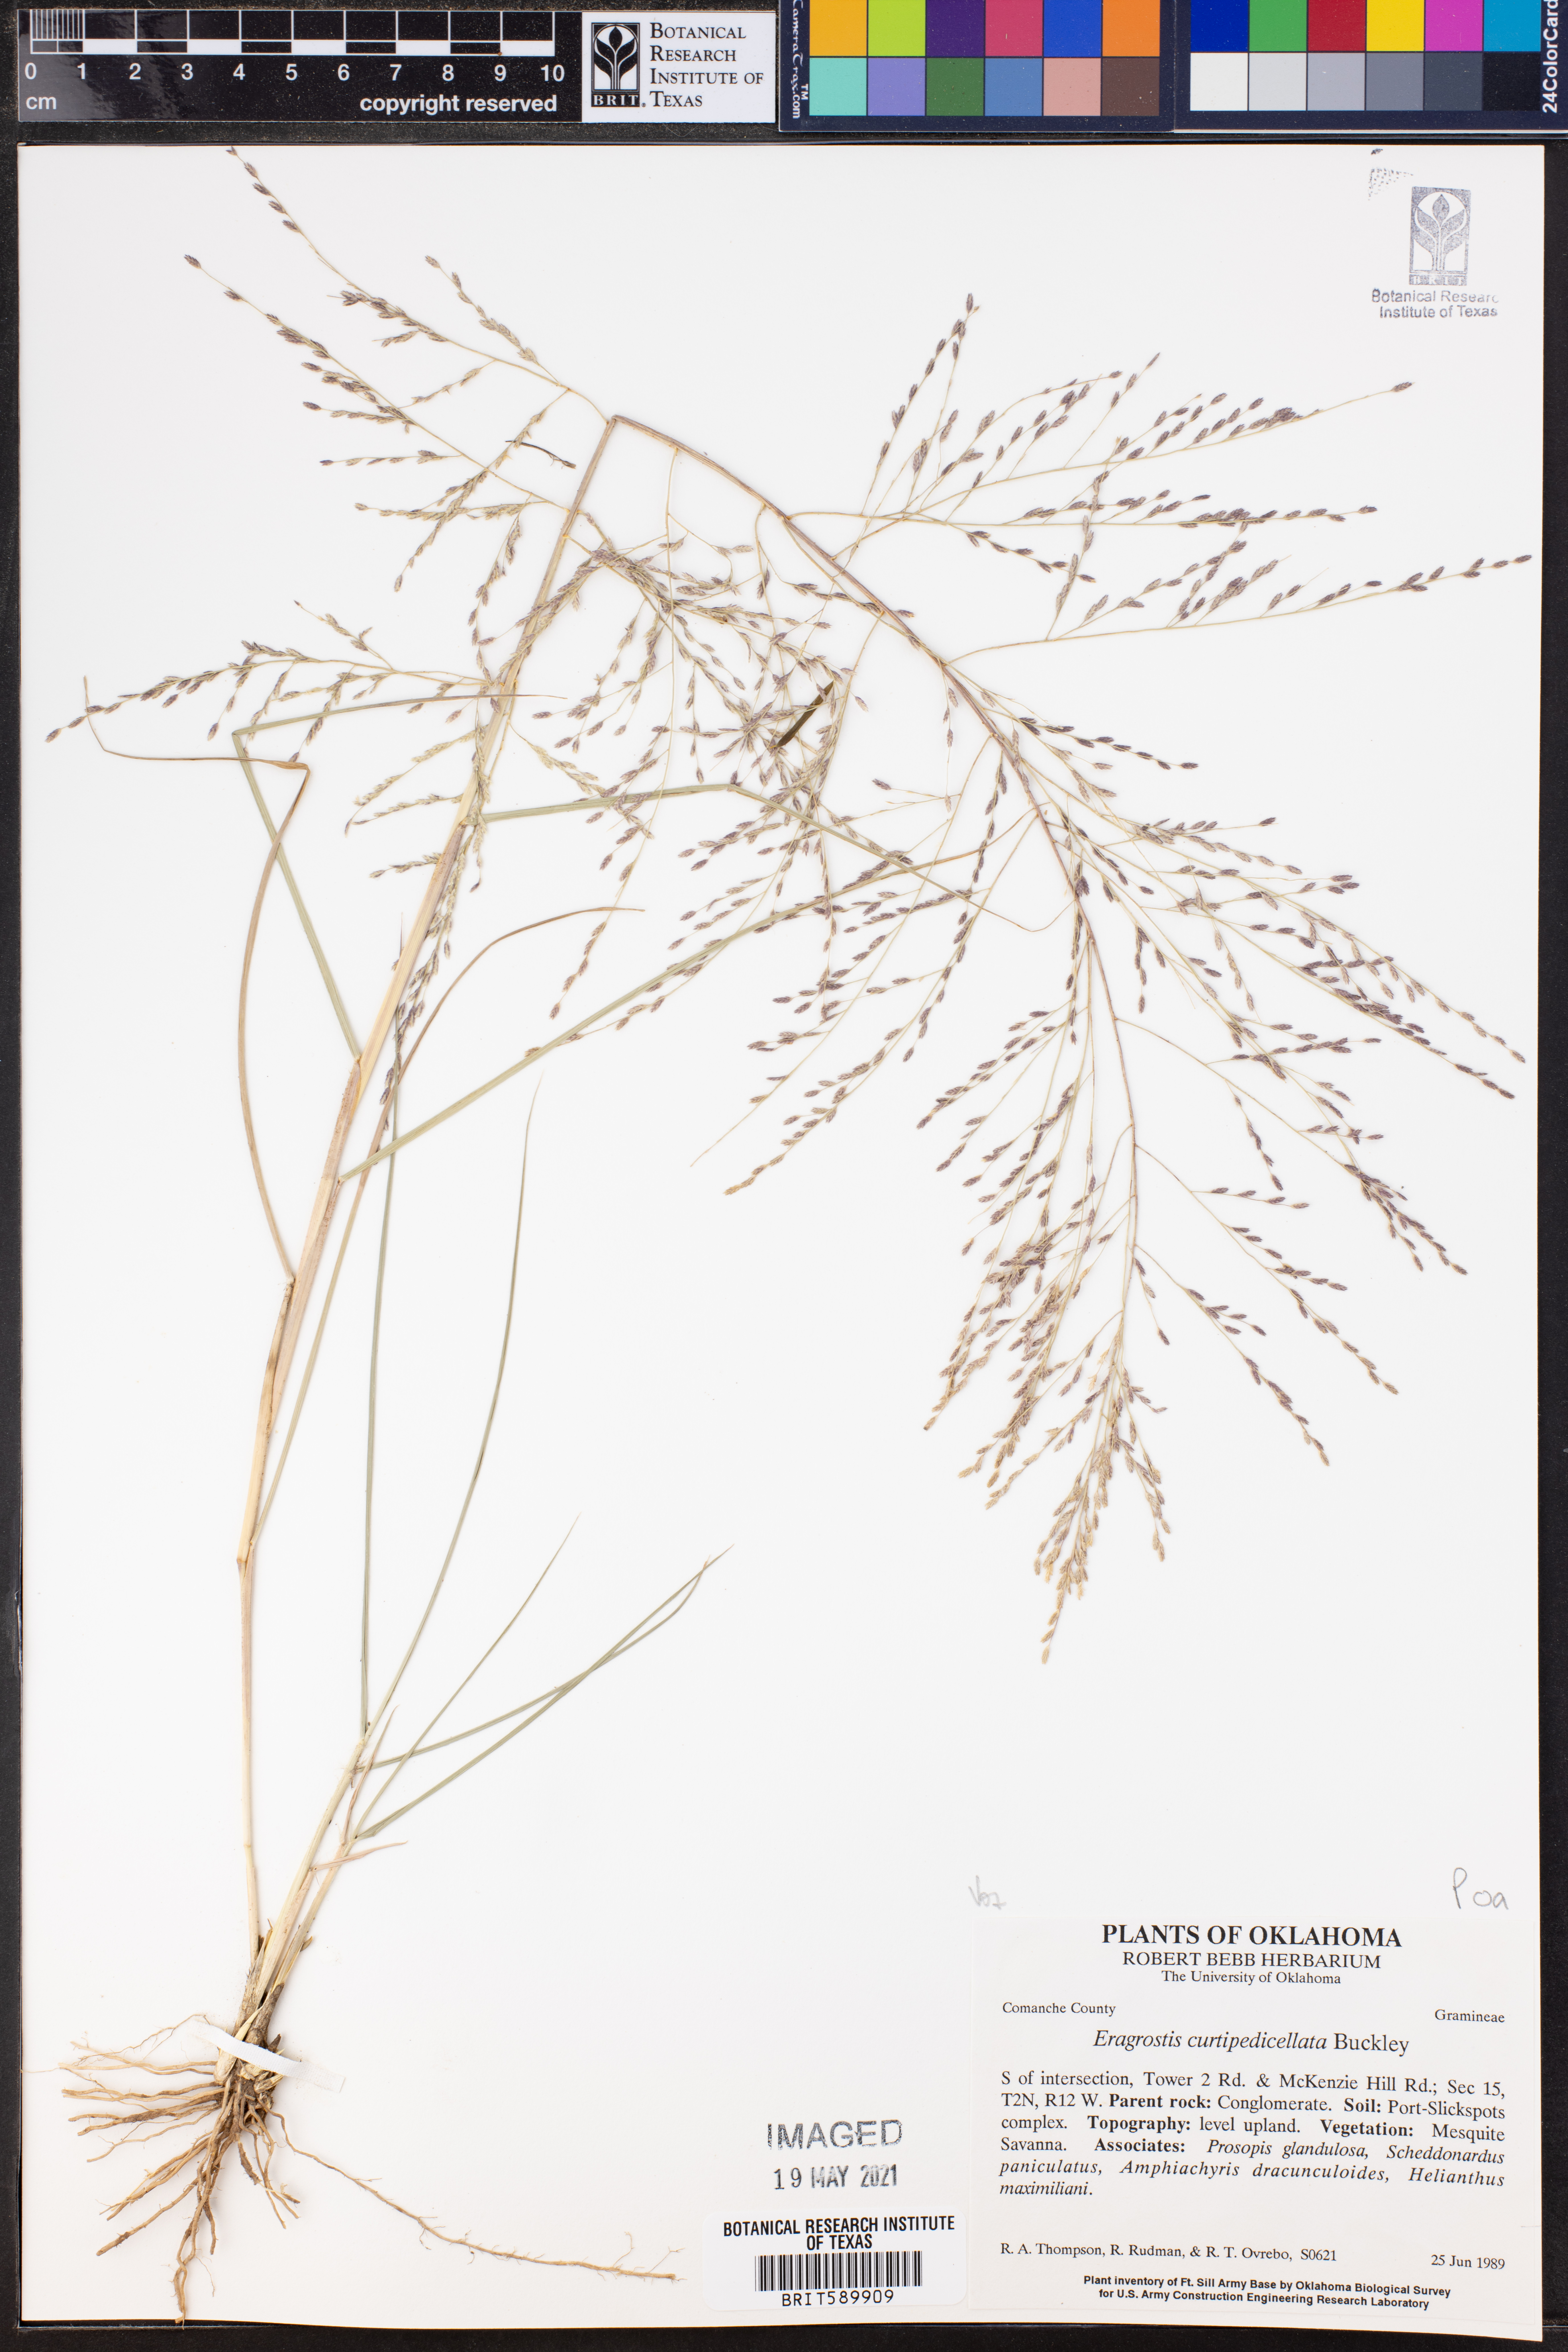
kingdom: Plantae
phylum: Tracheophyta
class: Liliopsida
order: Poales
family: Poaceae
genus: Eragrostis
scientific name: Eragrostis curtipedicellata
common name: Gummy love grass
